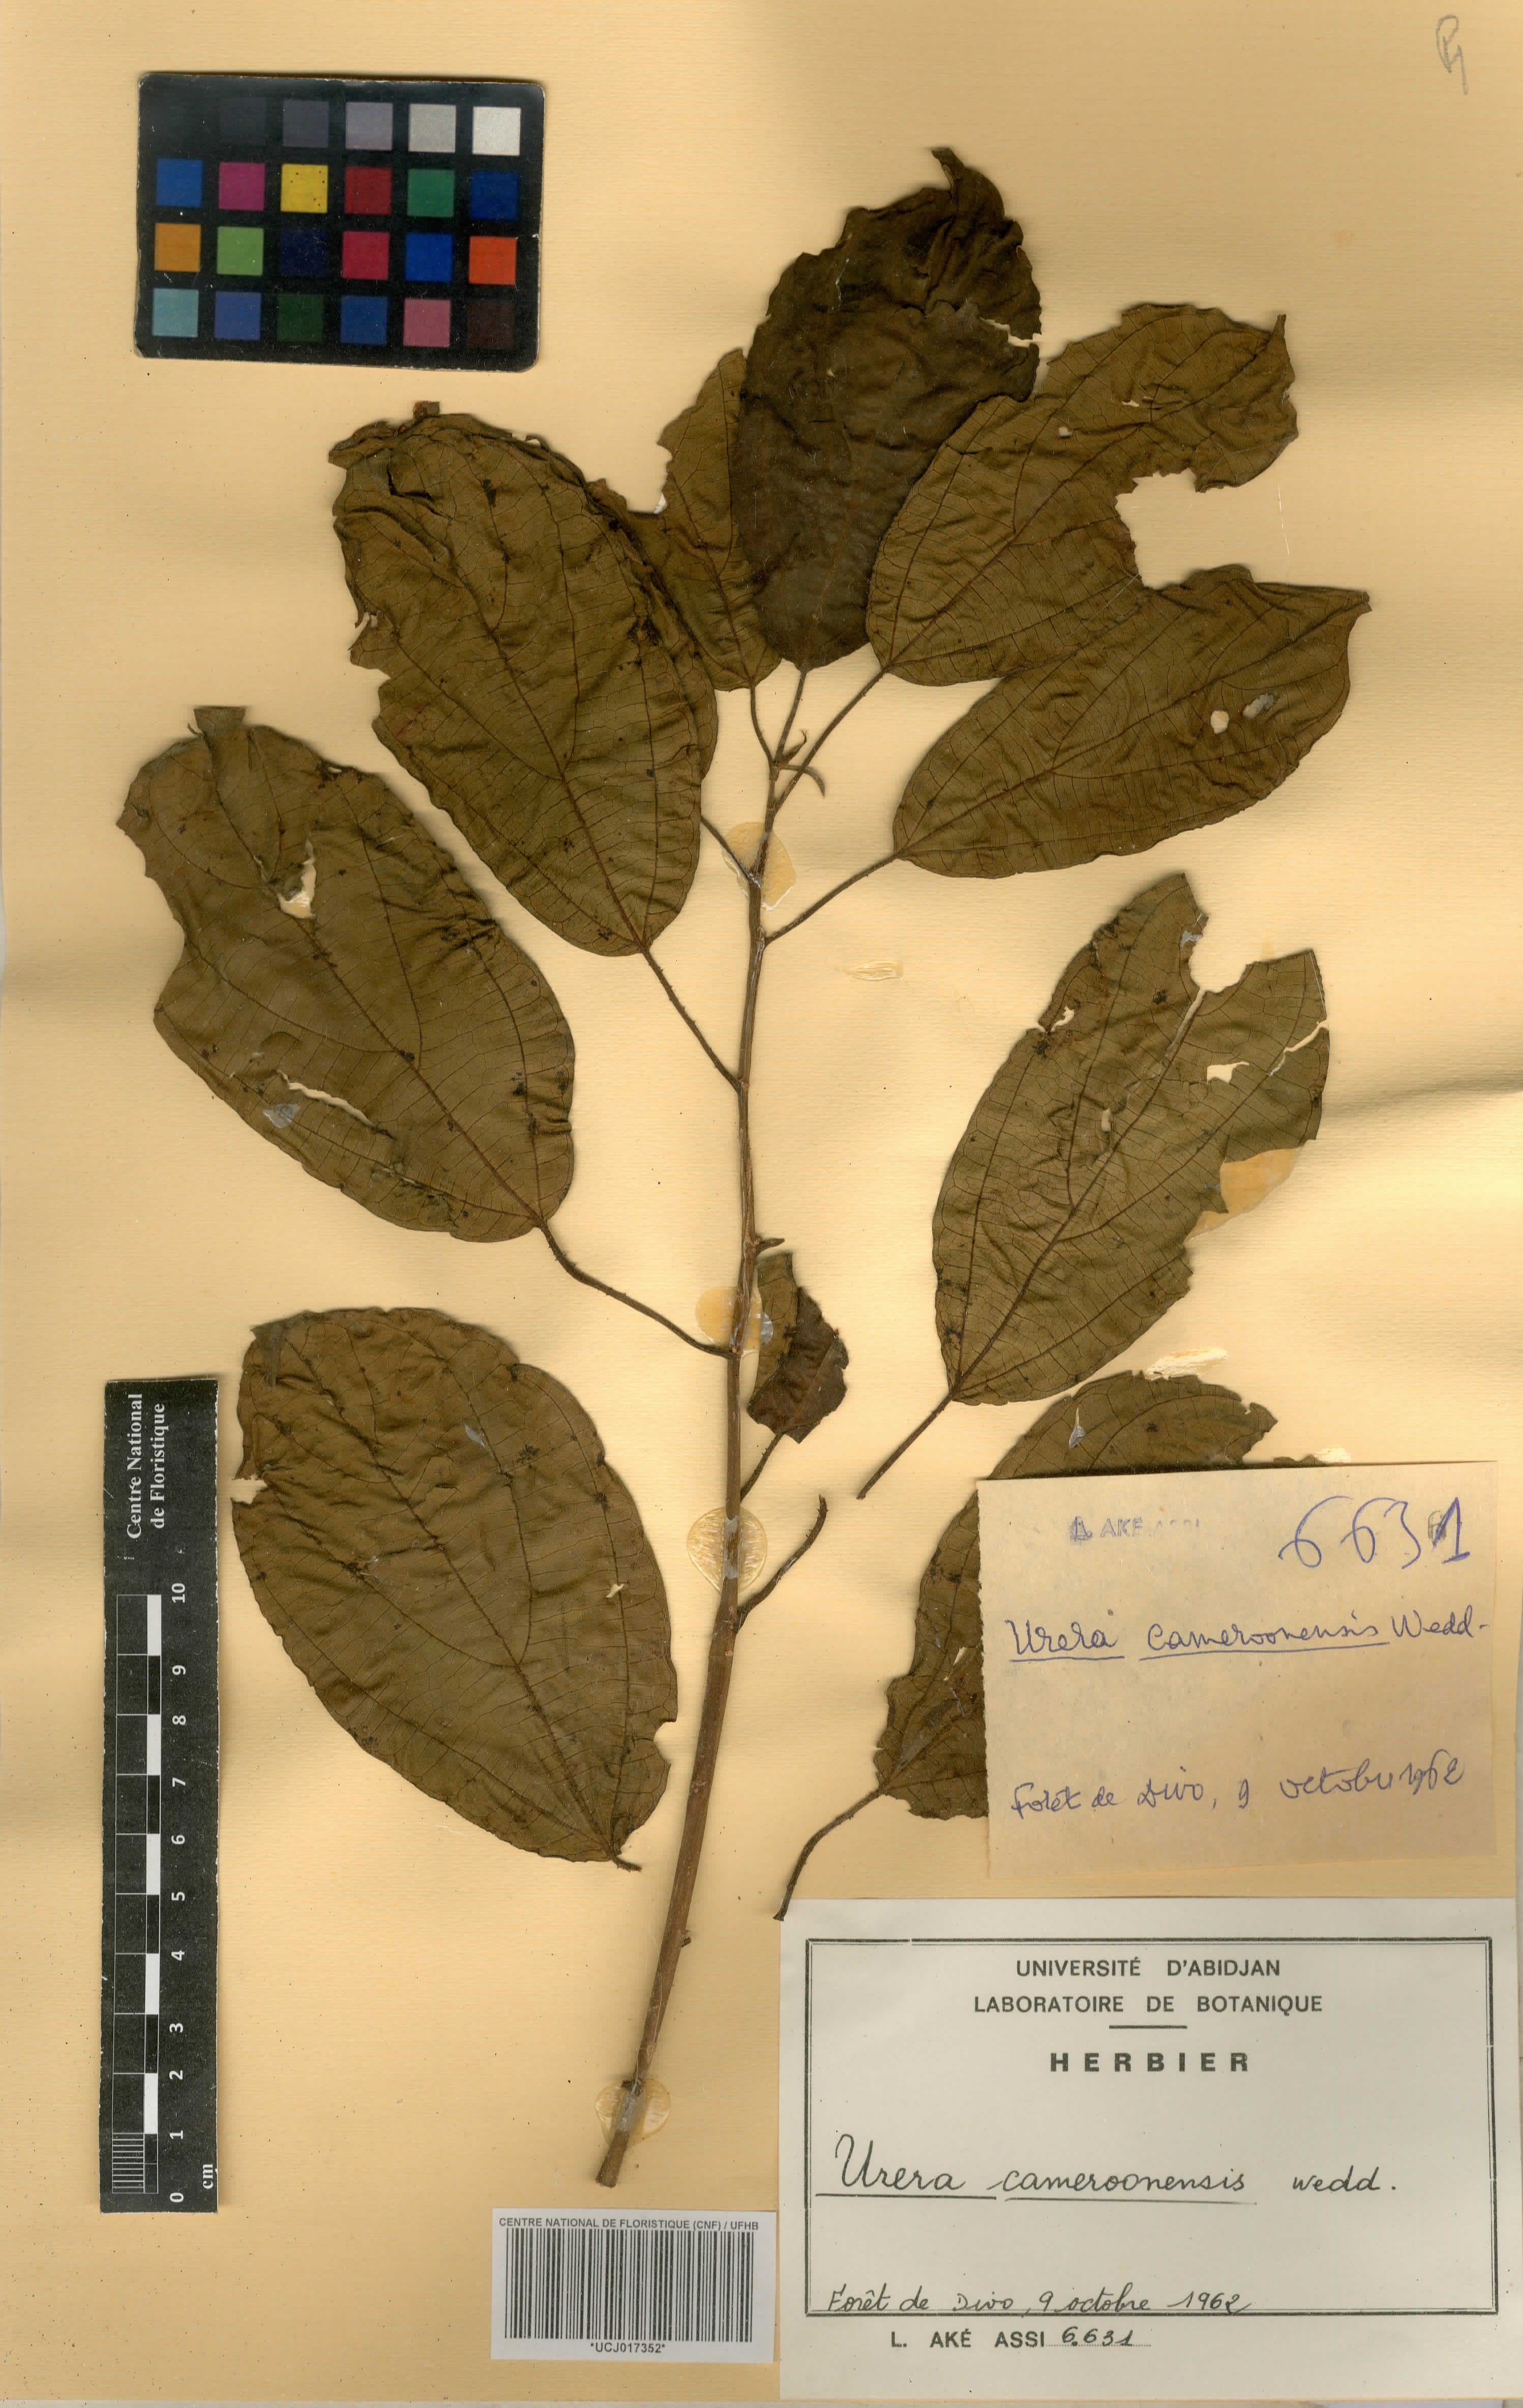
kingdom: Plantae
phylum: Tracheophyta
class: Magnoliopsida
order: Rosales
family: Urticaceae
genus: Scepocarpus
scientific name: Scepocarpus trinervis
